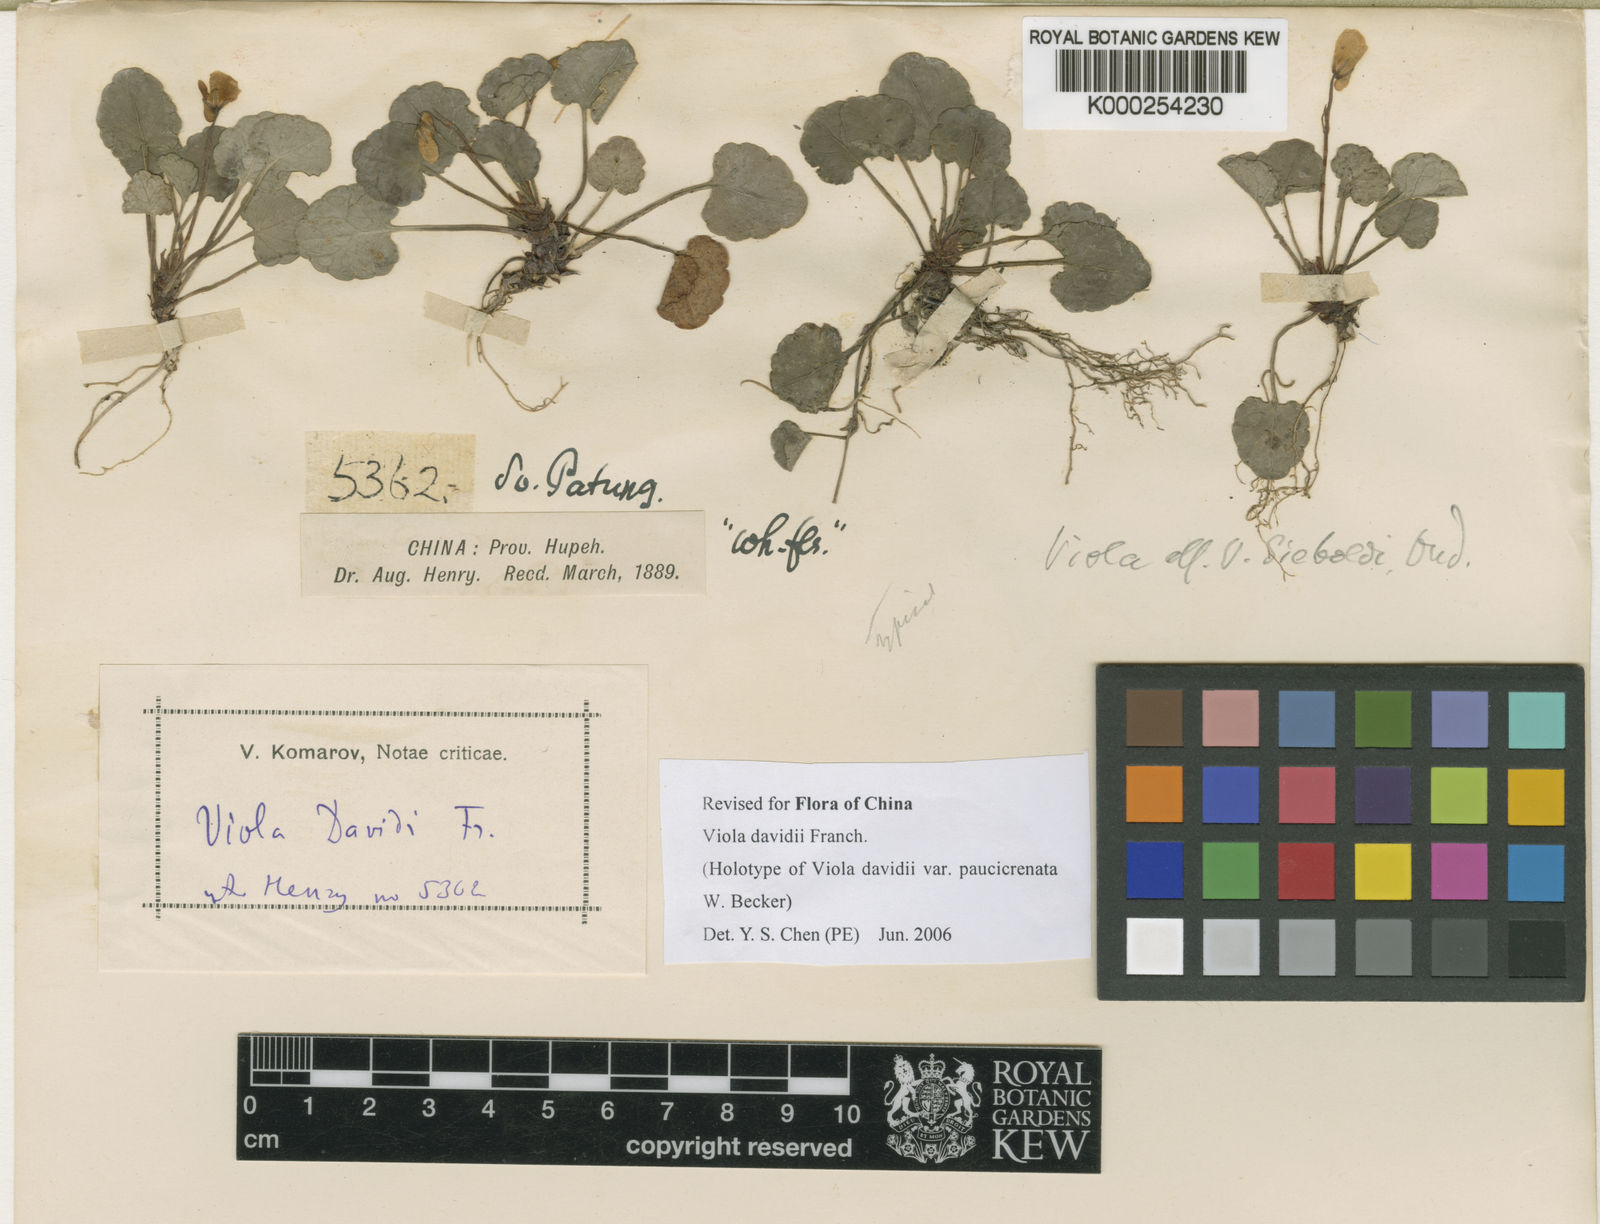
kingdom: Plantae
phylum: Tracheophyta
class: Magnoliopsida
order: Malpighiales
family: Violaceae
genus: Viola
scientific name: Viola davidii
